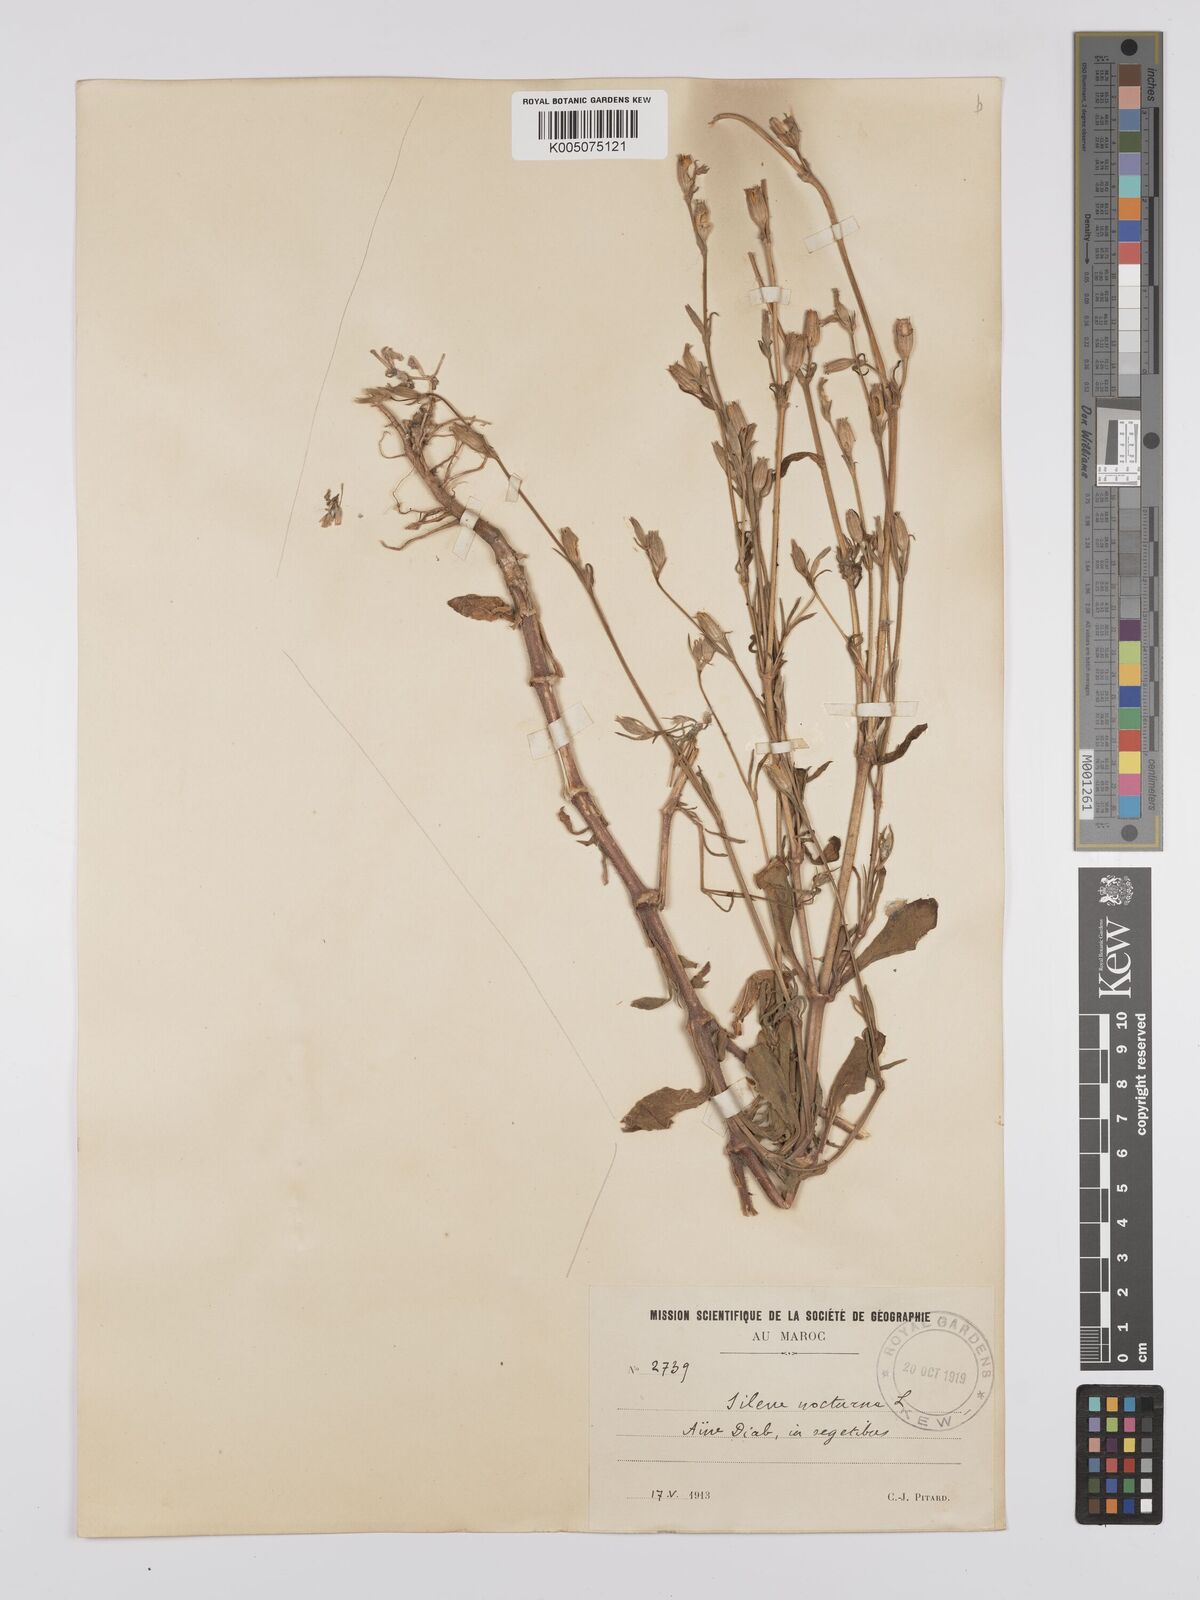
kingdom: Plantae
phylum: Tracheophyta
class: Magnoliopsida
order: Caryophyllales
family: Caryophyllaceae
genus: Silene
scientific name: Silene nocturna
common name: Mediterranean catchfly
